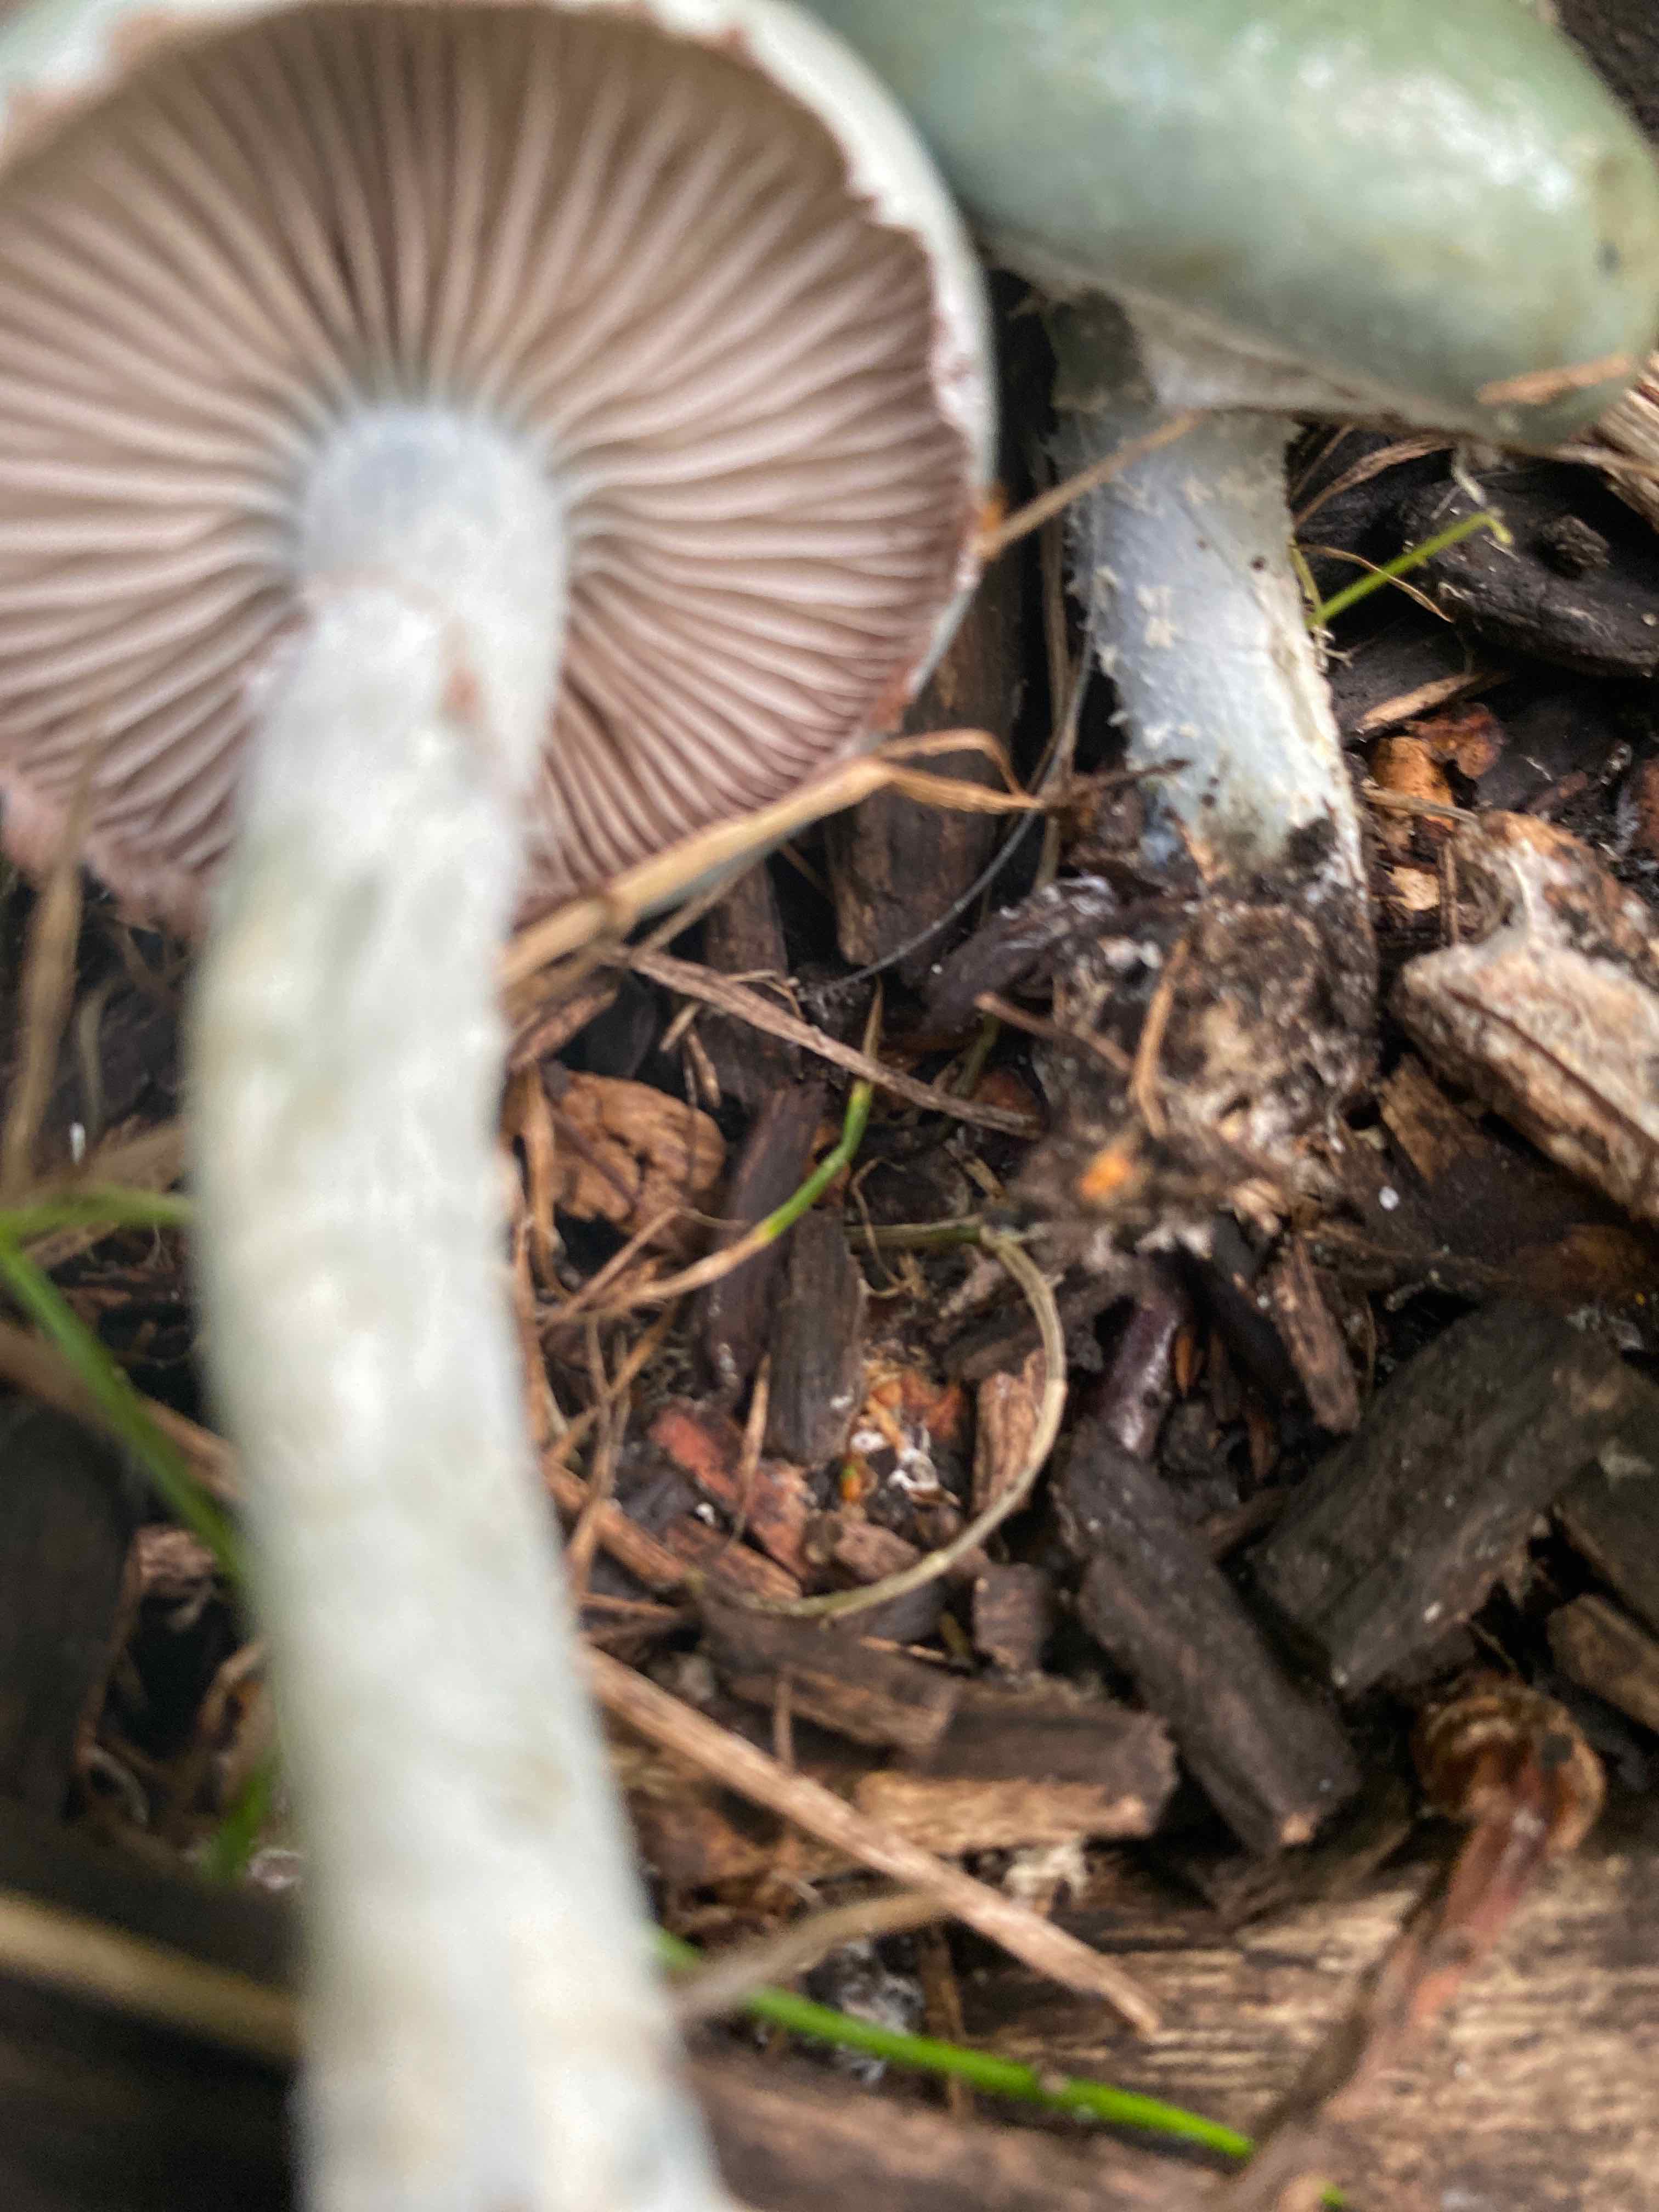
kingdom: Fungi
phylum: Basidiomycota
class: Agaricomycetes
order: Agaricales
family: Strophariaceae
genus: Stropharia
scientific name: Stropharia cyanea
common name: blågrøn bredblad
